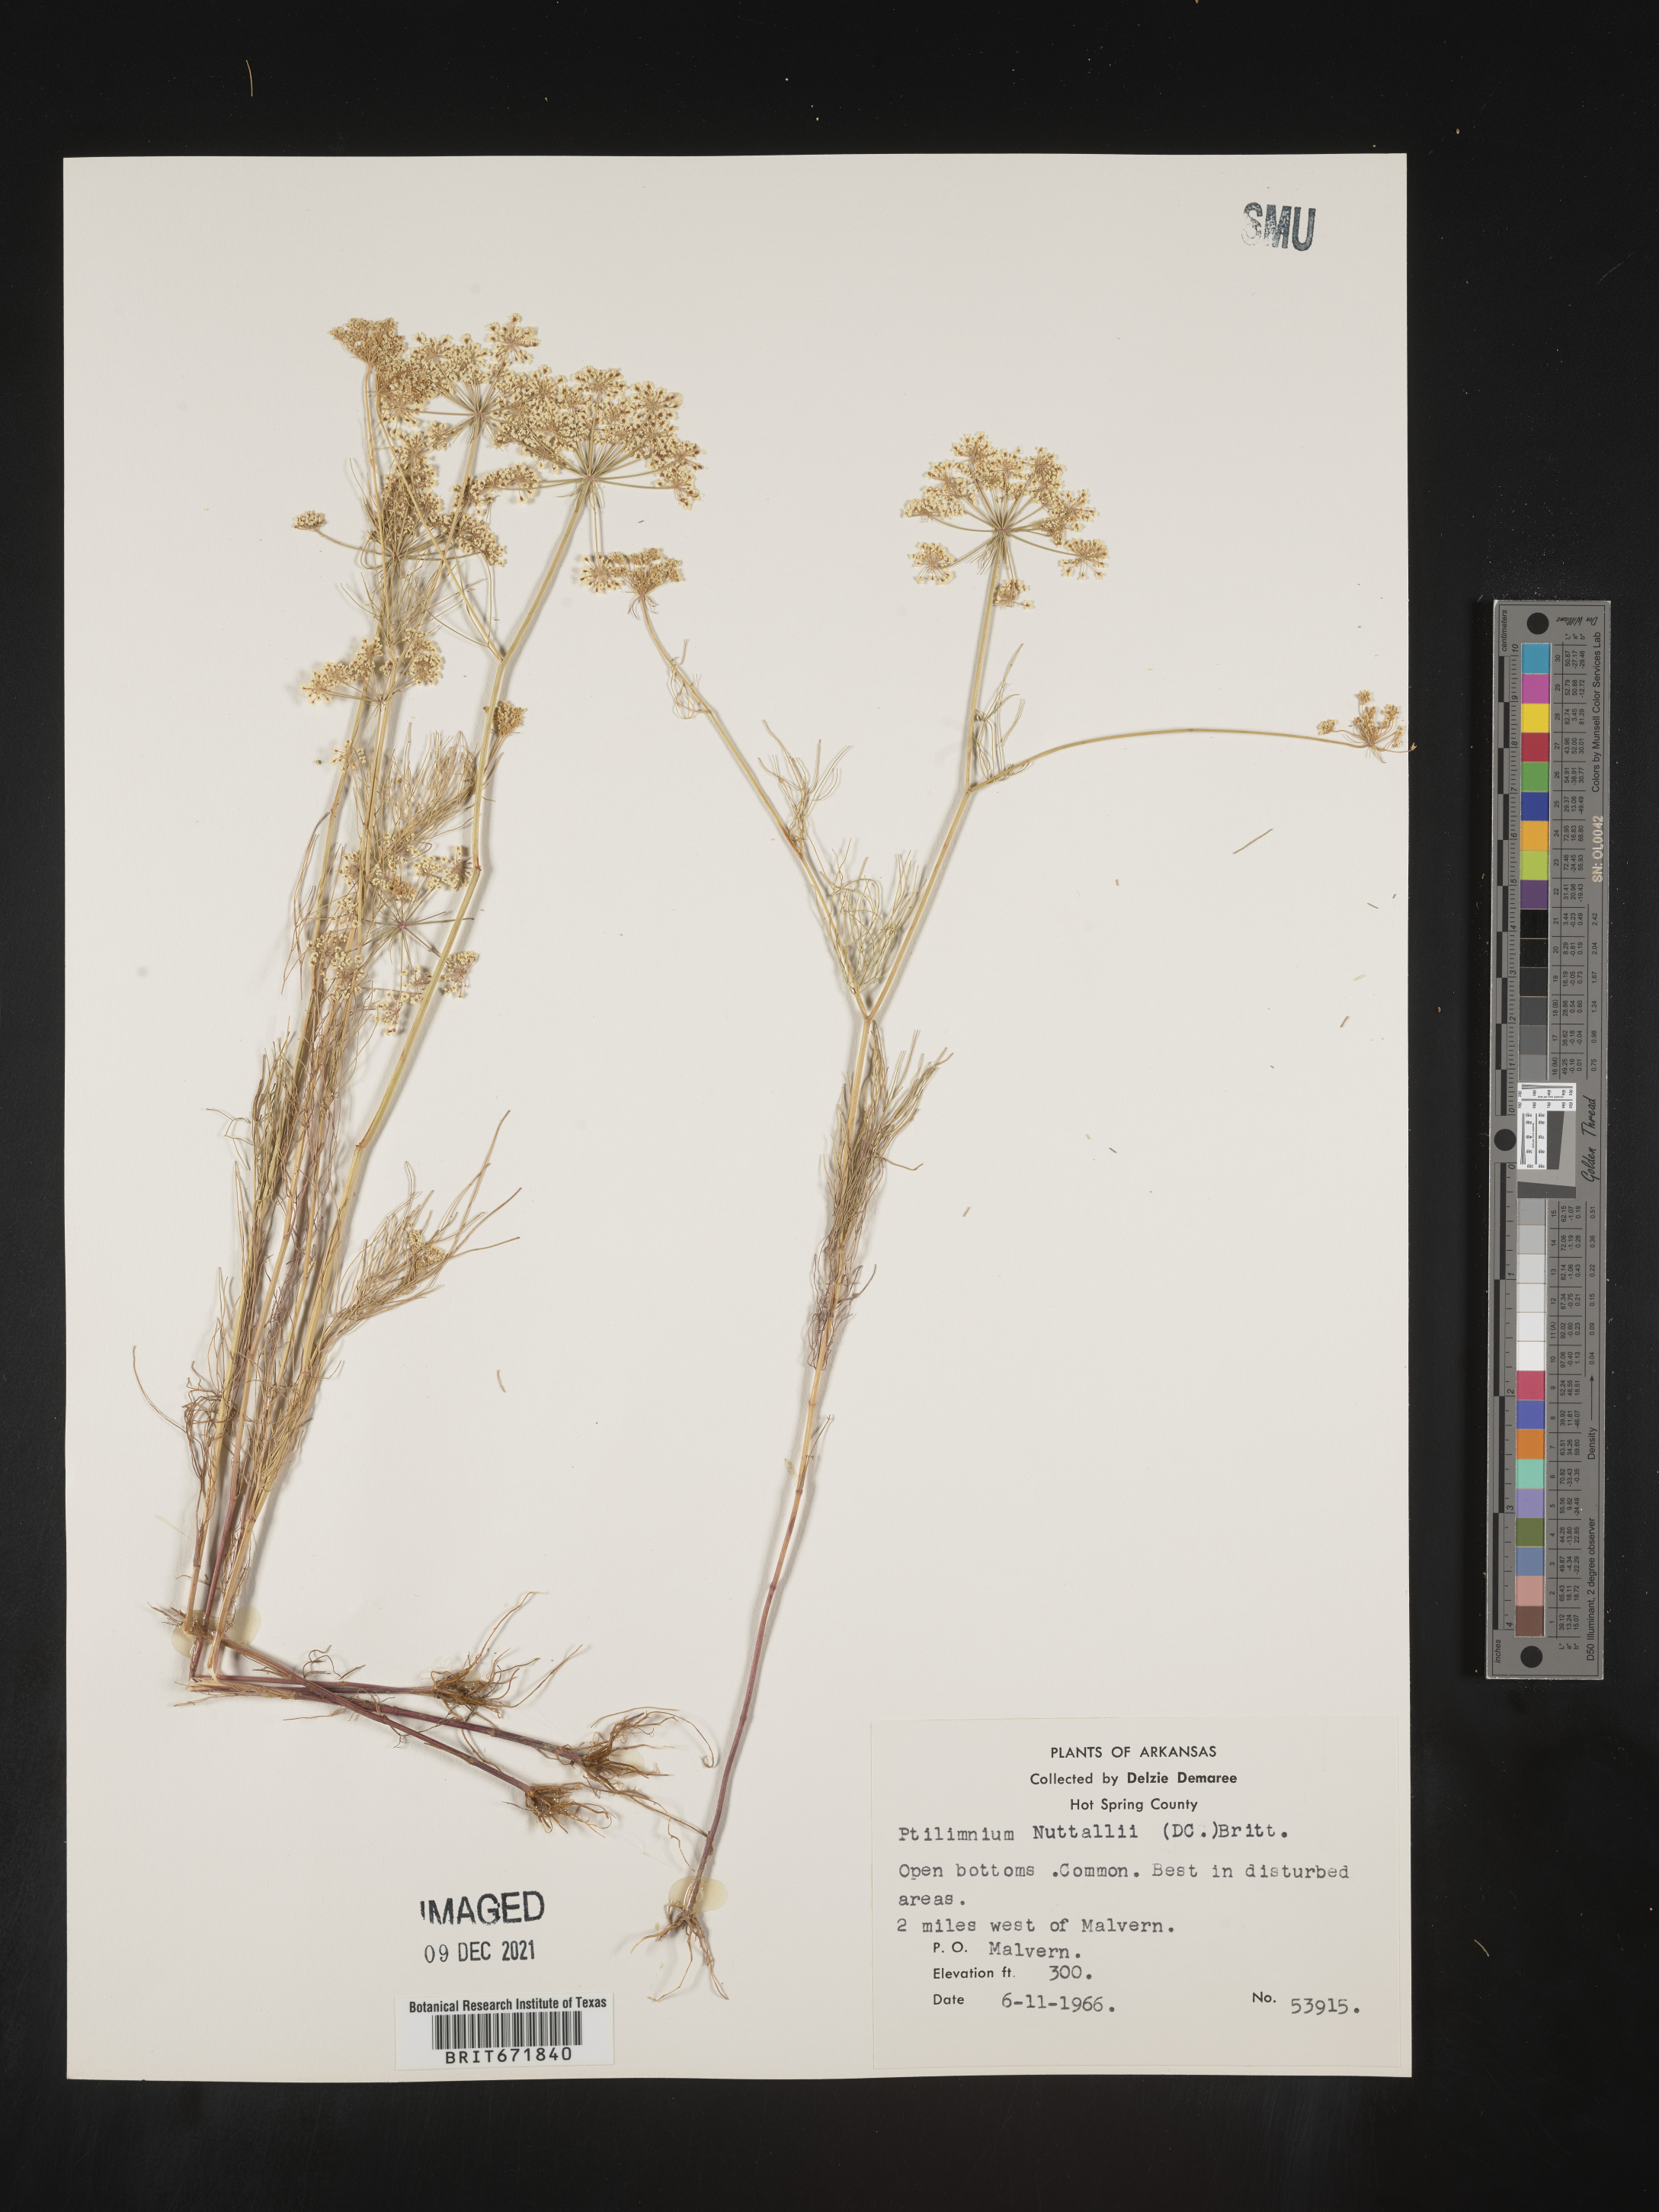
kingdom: Plantae
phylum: Tracheophyta
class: Magnoliopsida
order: Apiales
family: Apiaceae
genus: Ptilimnium
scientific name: Ptilimnium nuttallii
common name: Ozark bishop's-weed
